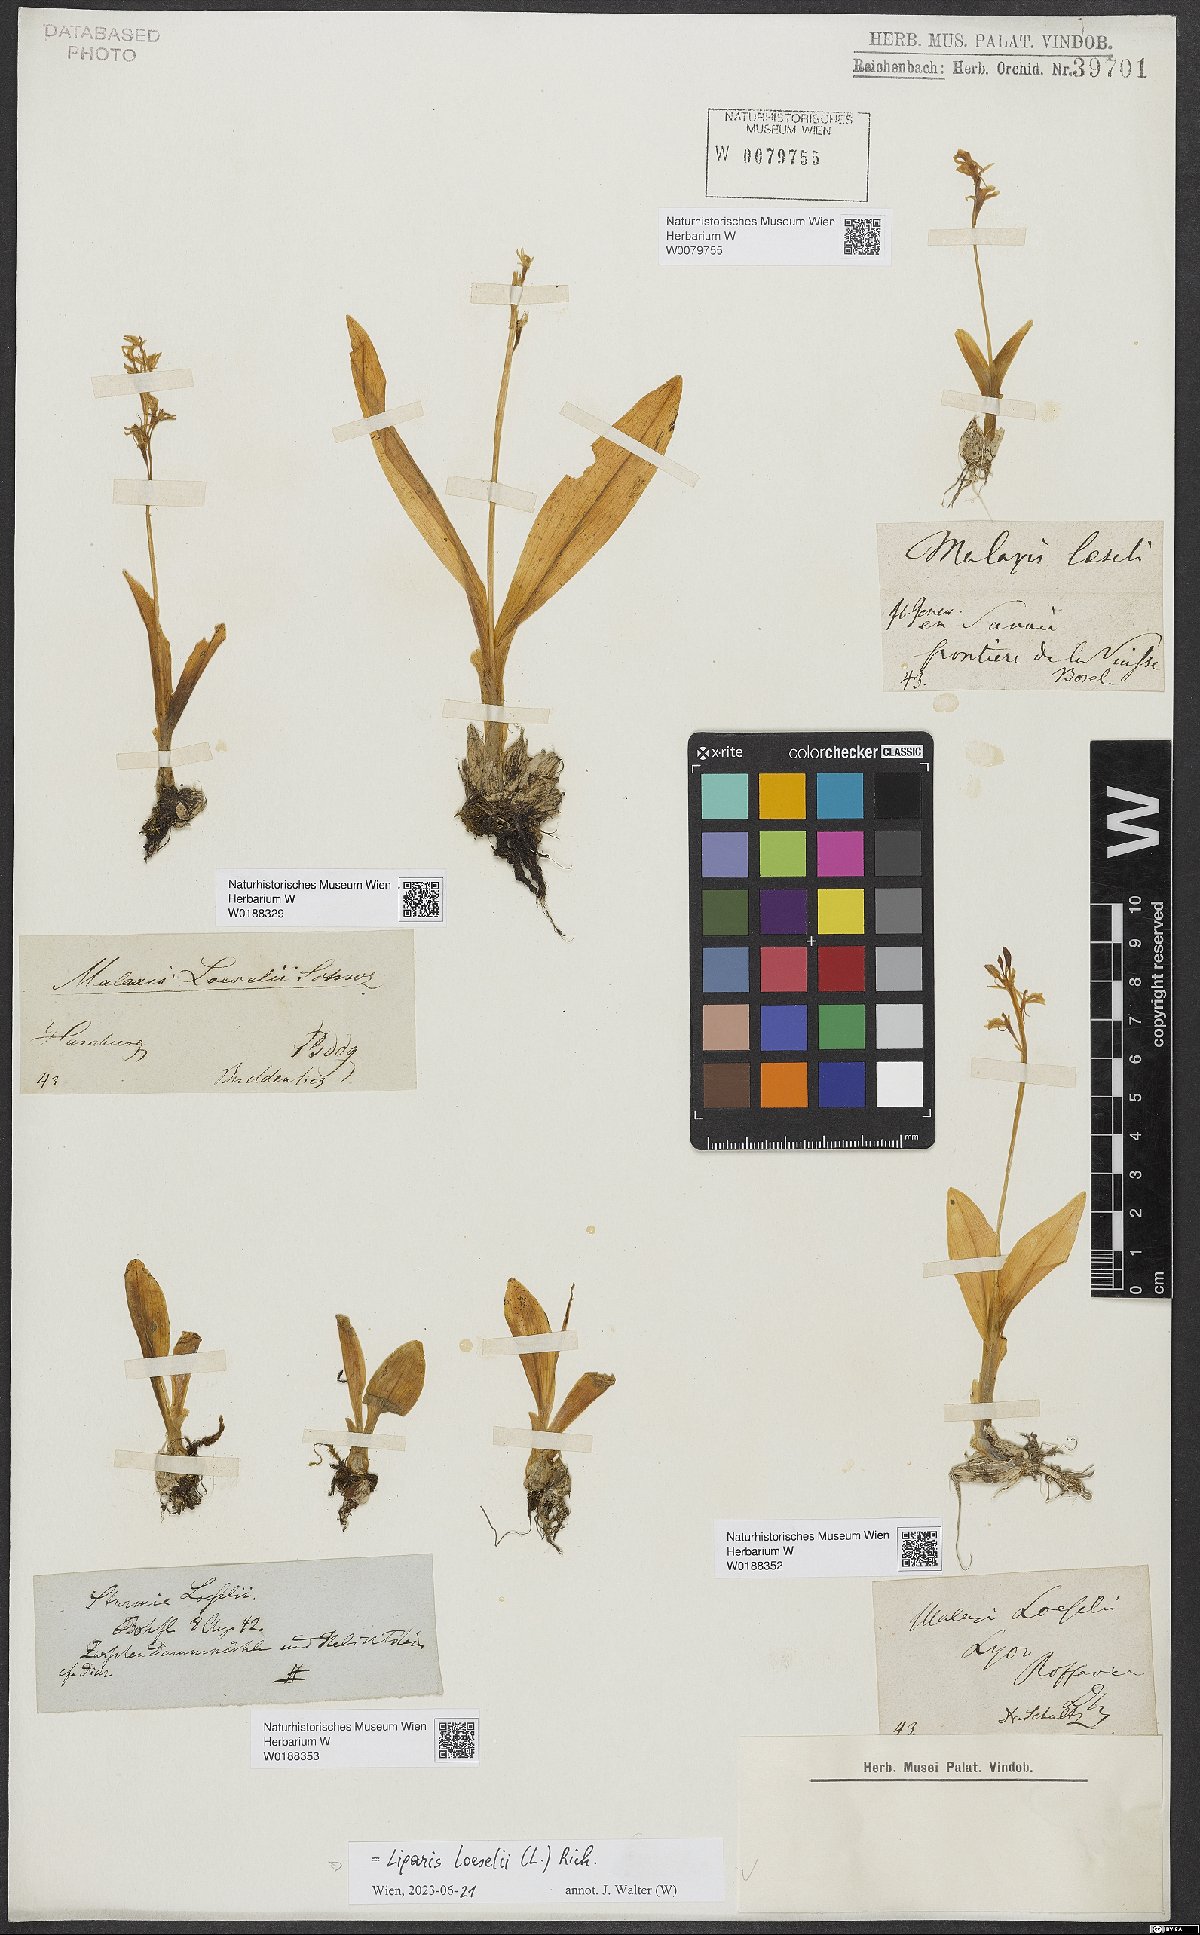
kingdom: Animalia
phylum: Arthropoda
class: Insecta
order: Coleoptera
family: Curculionidae
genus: Liparis
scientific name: Liparis loeselii
